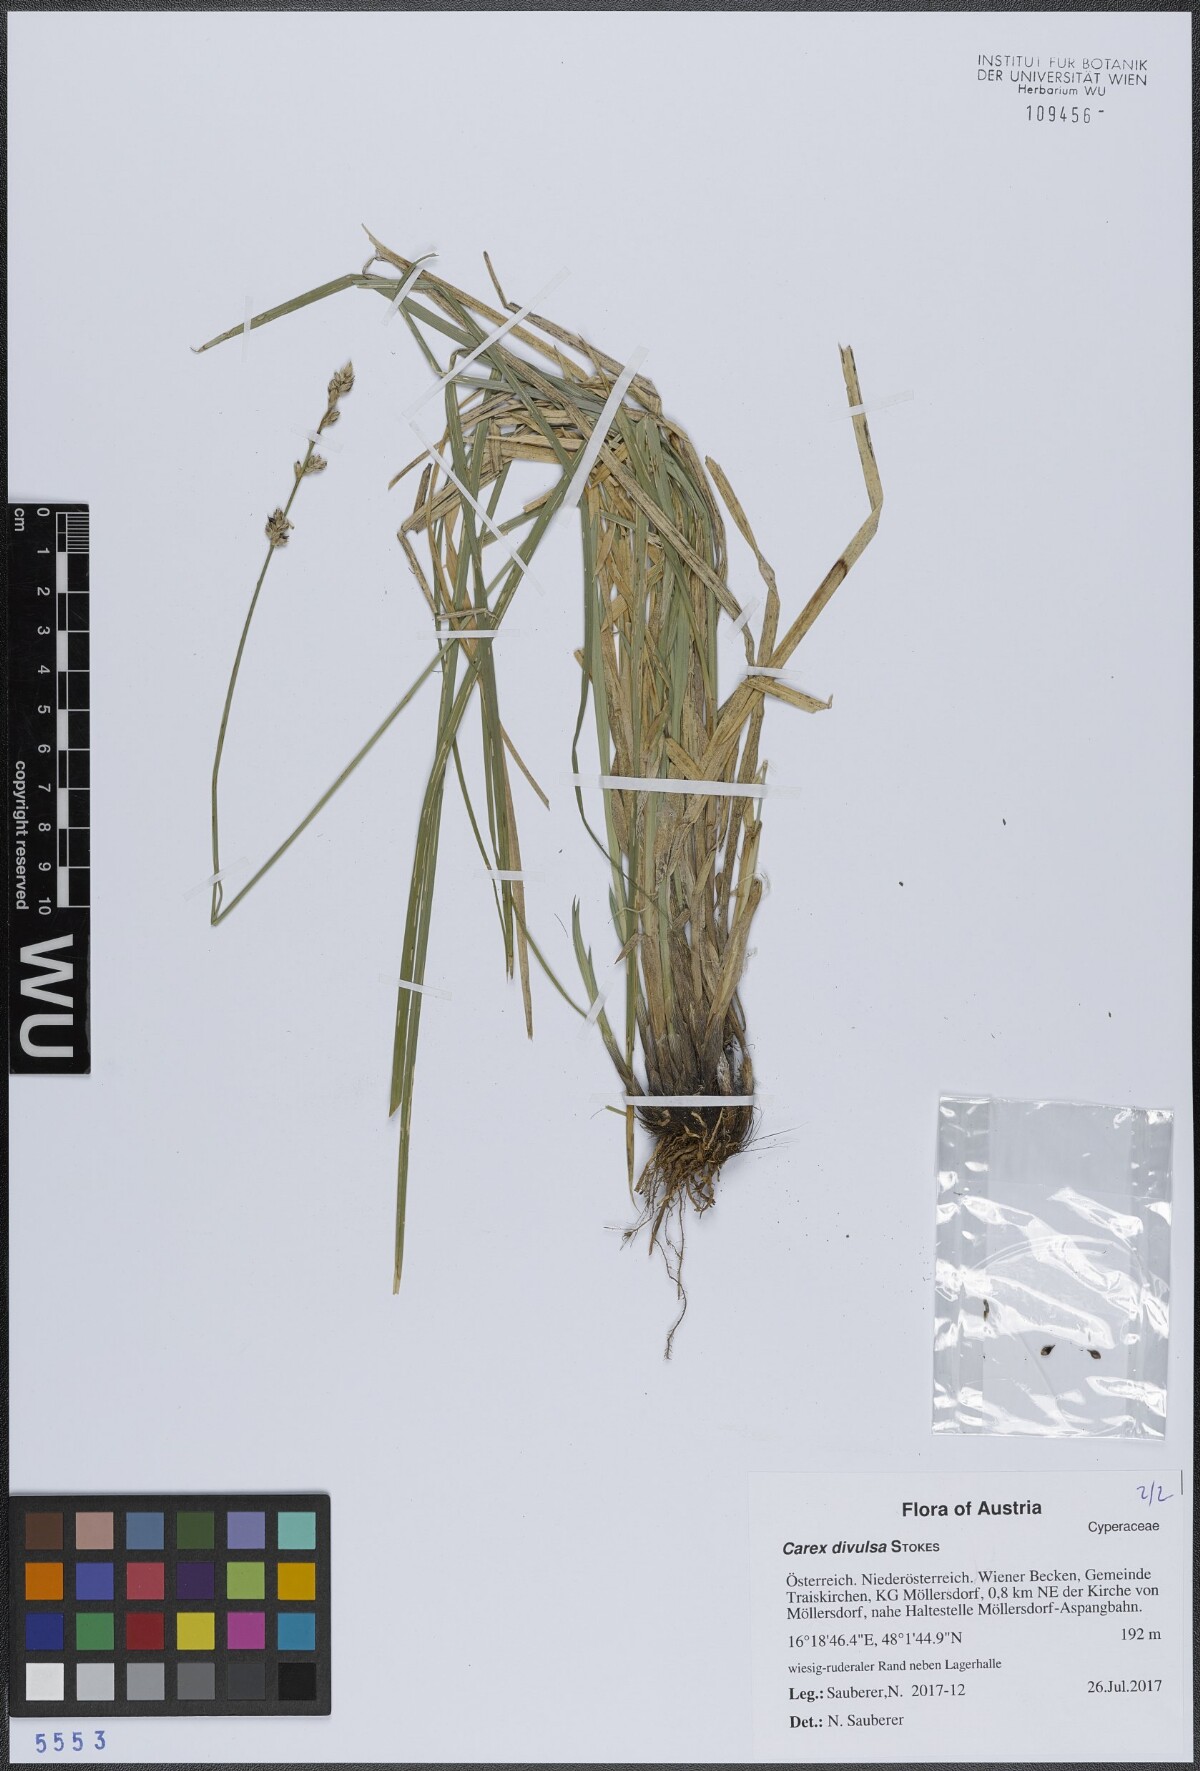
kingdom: Plantae
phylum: Tracheophyta
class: Liliopsida
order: Poales
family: Cyperaceae
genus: Carex
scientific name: Carex divulsa
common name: Grassland sedge
